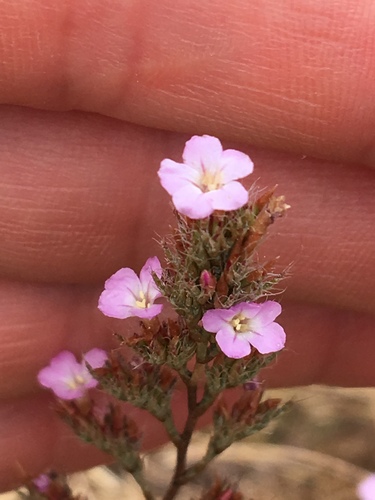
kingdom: Plantae
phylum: Tracheophyta
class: Magnoliopsida
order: Caryophyllales
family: Plumbaginaceae
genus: Myriolimon
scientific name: Myriolimon ferulaceum
